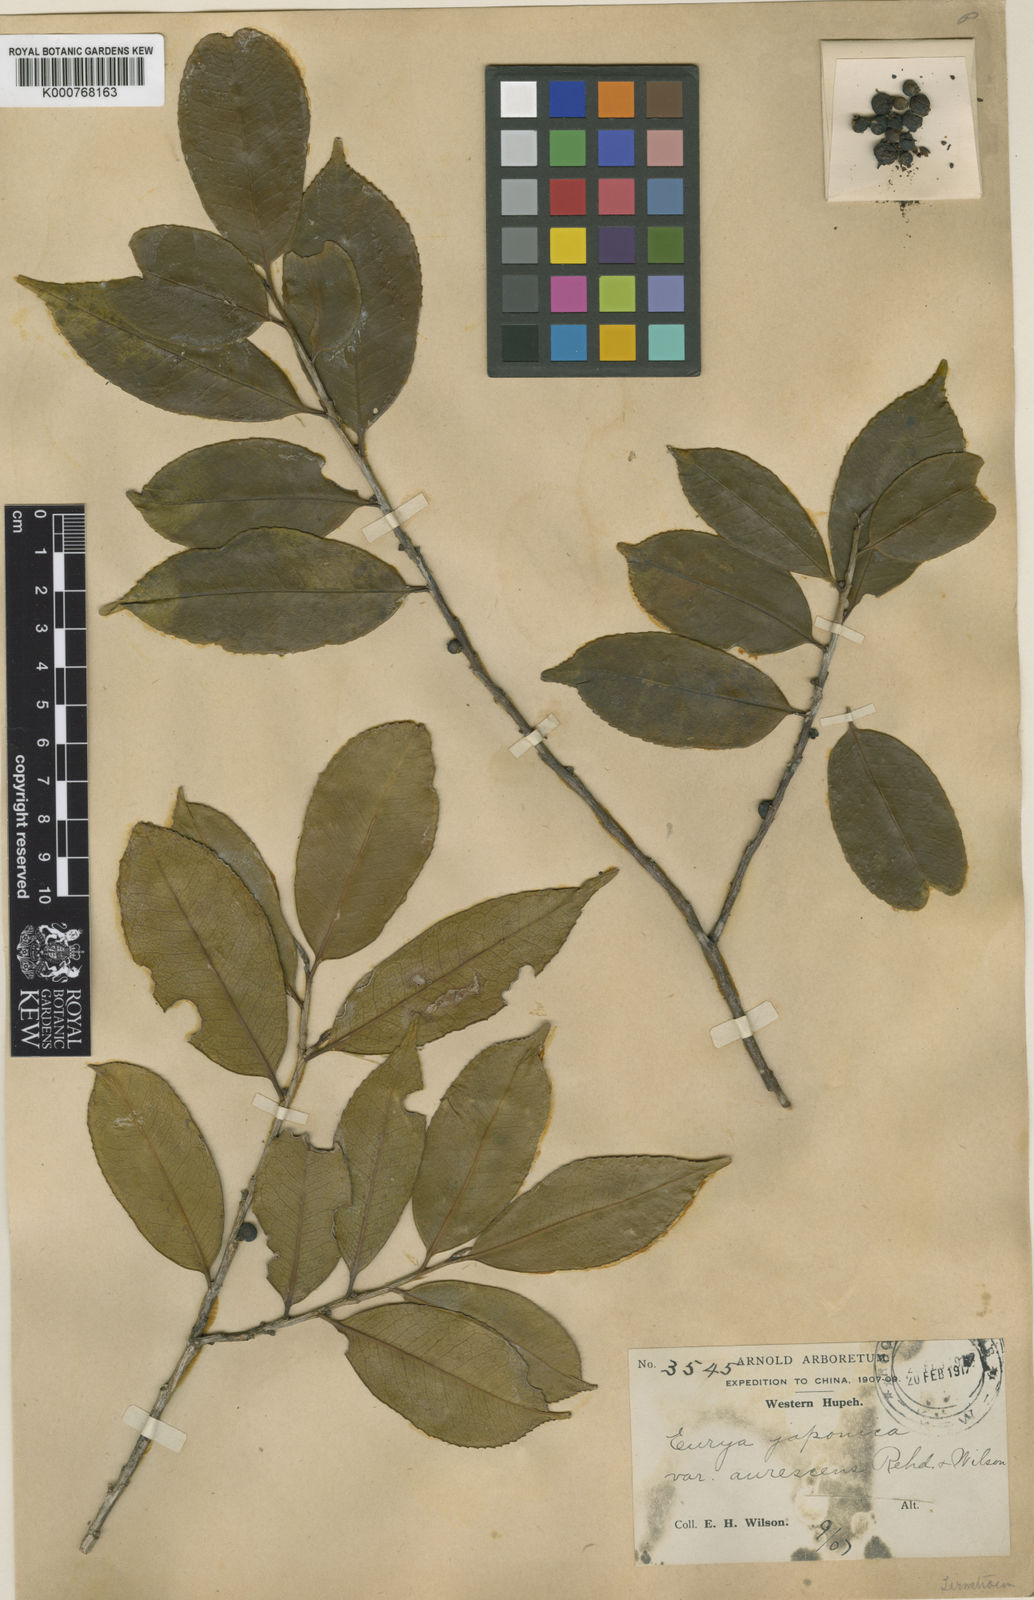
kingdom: Plantae
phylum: Tracheophyta
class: Magnoliopsida
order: Ericales
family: Pentaphylacaceae
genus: Eurya
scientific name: Eurya japonica
